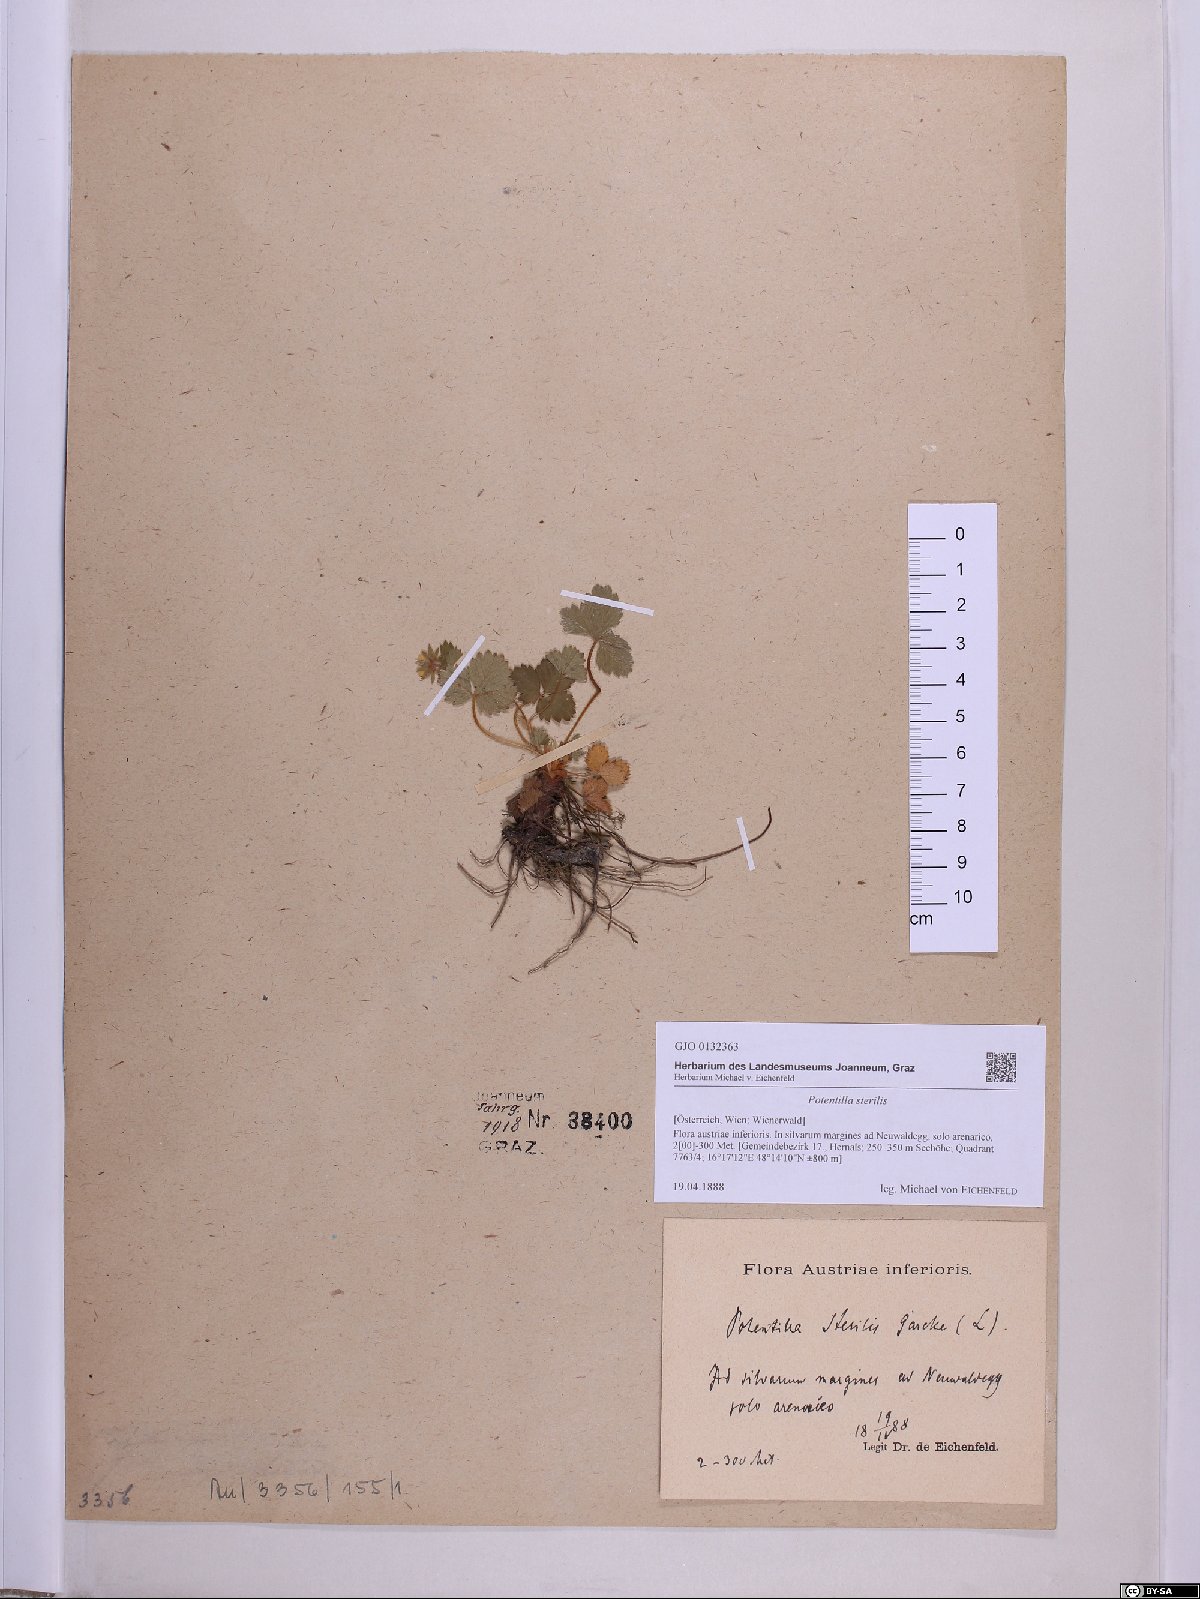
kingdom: Plantae
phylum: Tracheophyta
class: Magnoliopsida
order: Rosales
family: Rosaceae
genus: Potentilla
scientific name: Potentilla sterilis
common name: Barren strawberry
